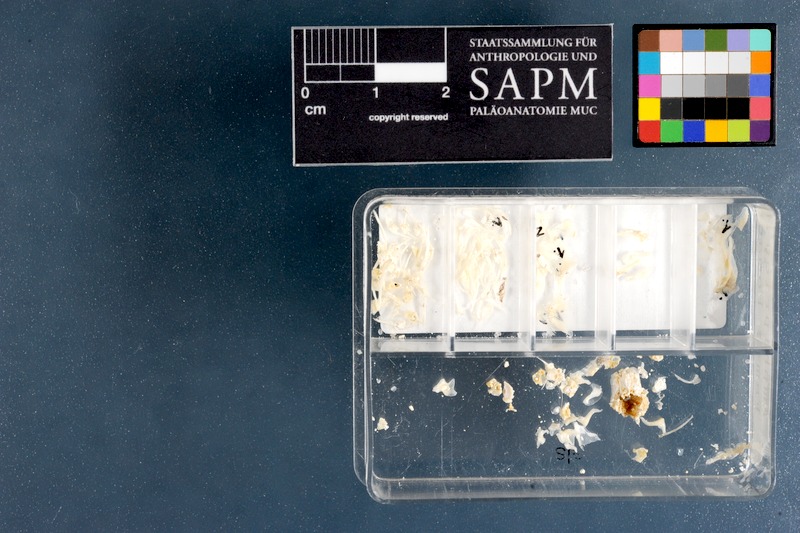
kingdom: Animalia
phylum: Chordata
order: Perciformes
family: Pomacentridae
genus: Amphiprion
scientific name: Amphiprion percula
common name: Clown anemonefish
